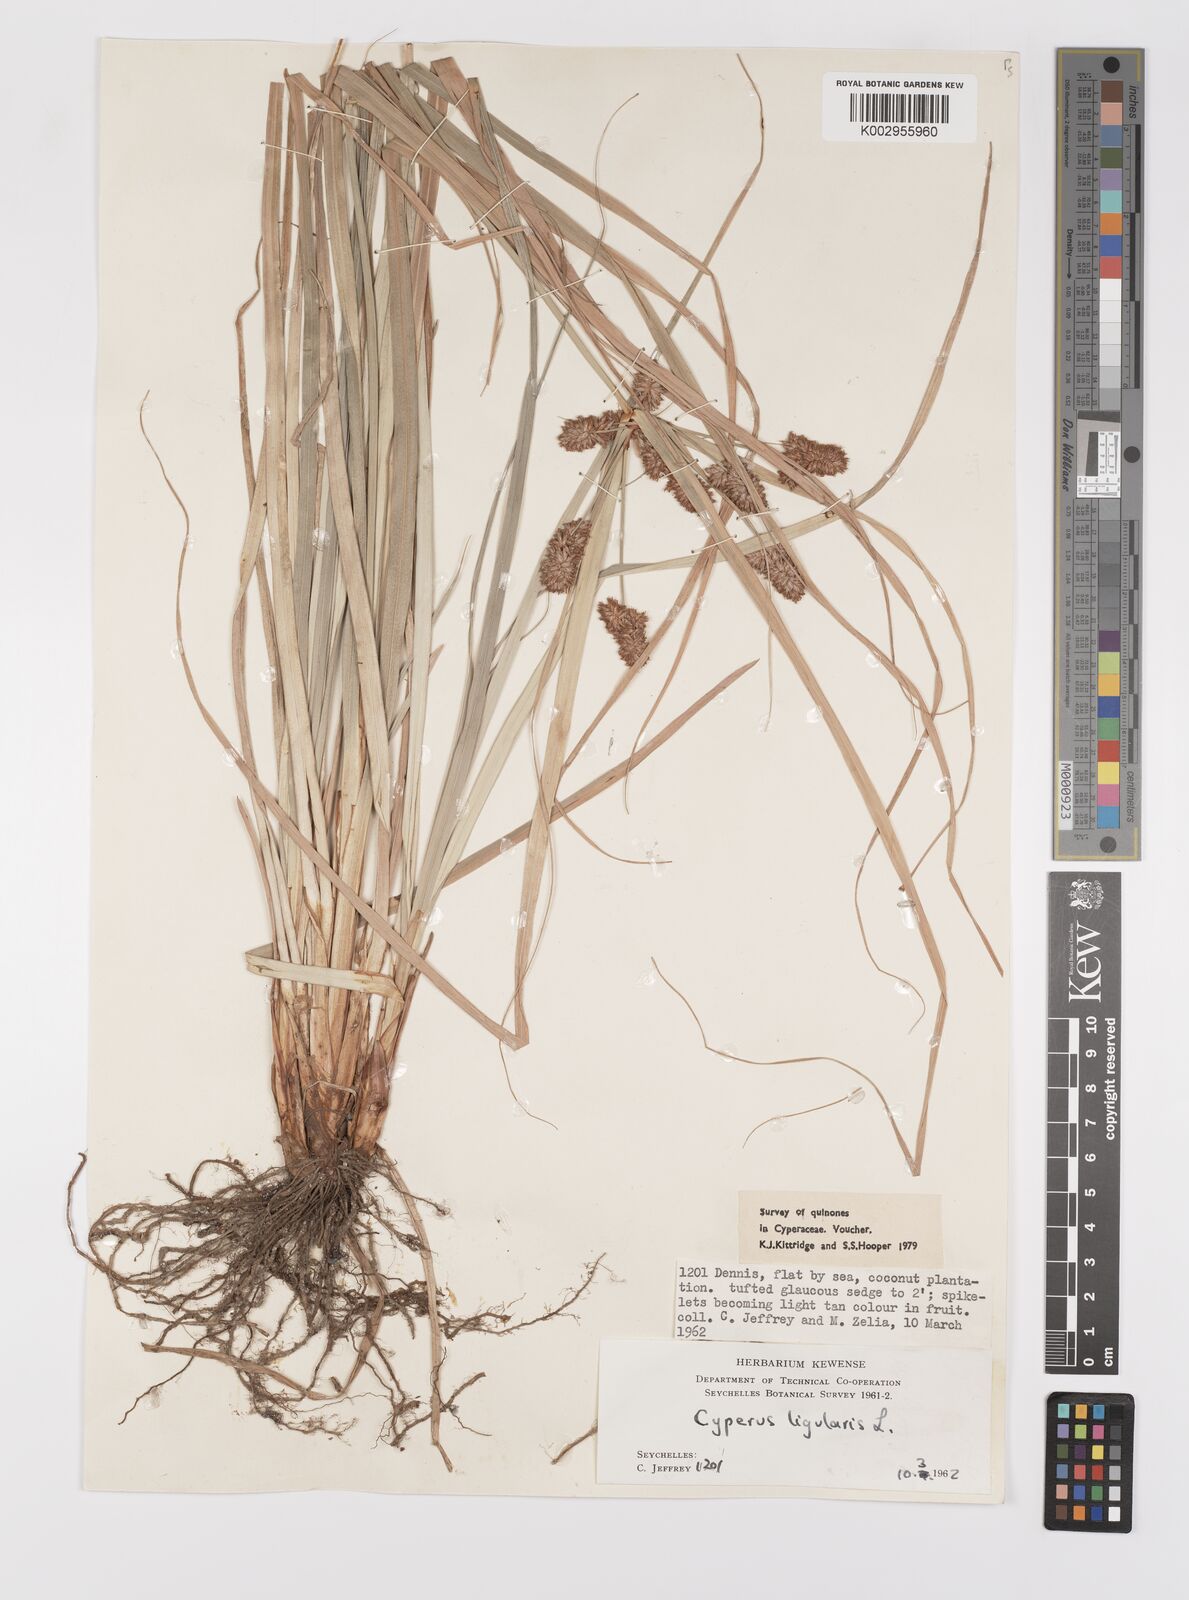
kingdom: Plantae
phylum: Tracheophyta
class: Liliopsida
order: Poales
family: Cyperaceae
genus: Cyperus
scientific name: Cyperus ligularis
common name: Swamp flat sedge
